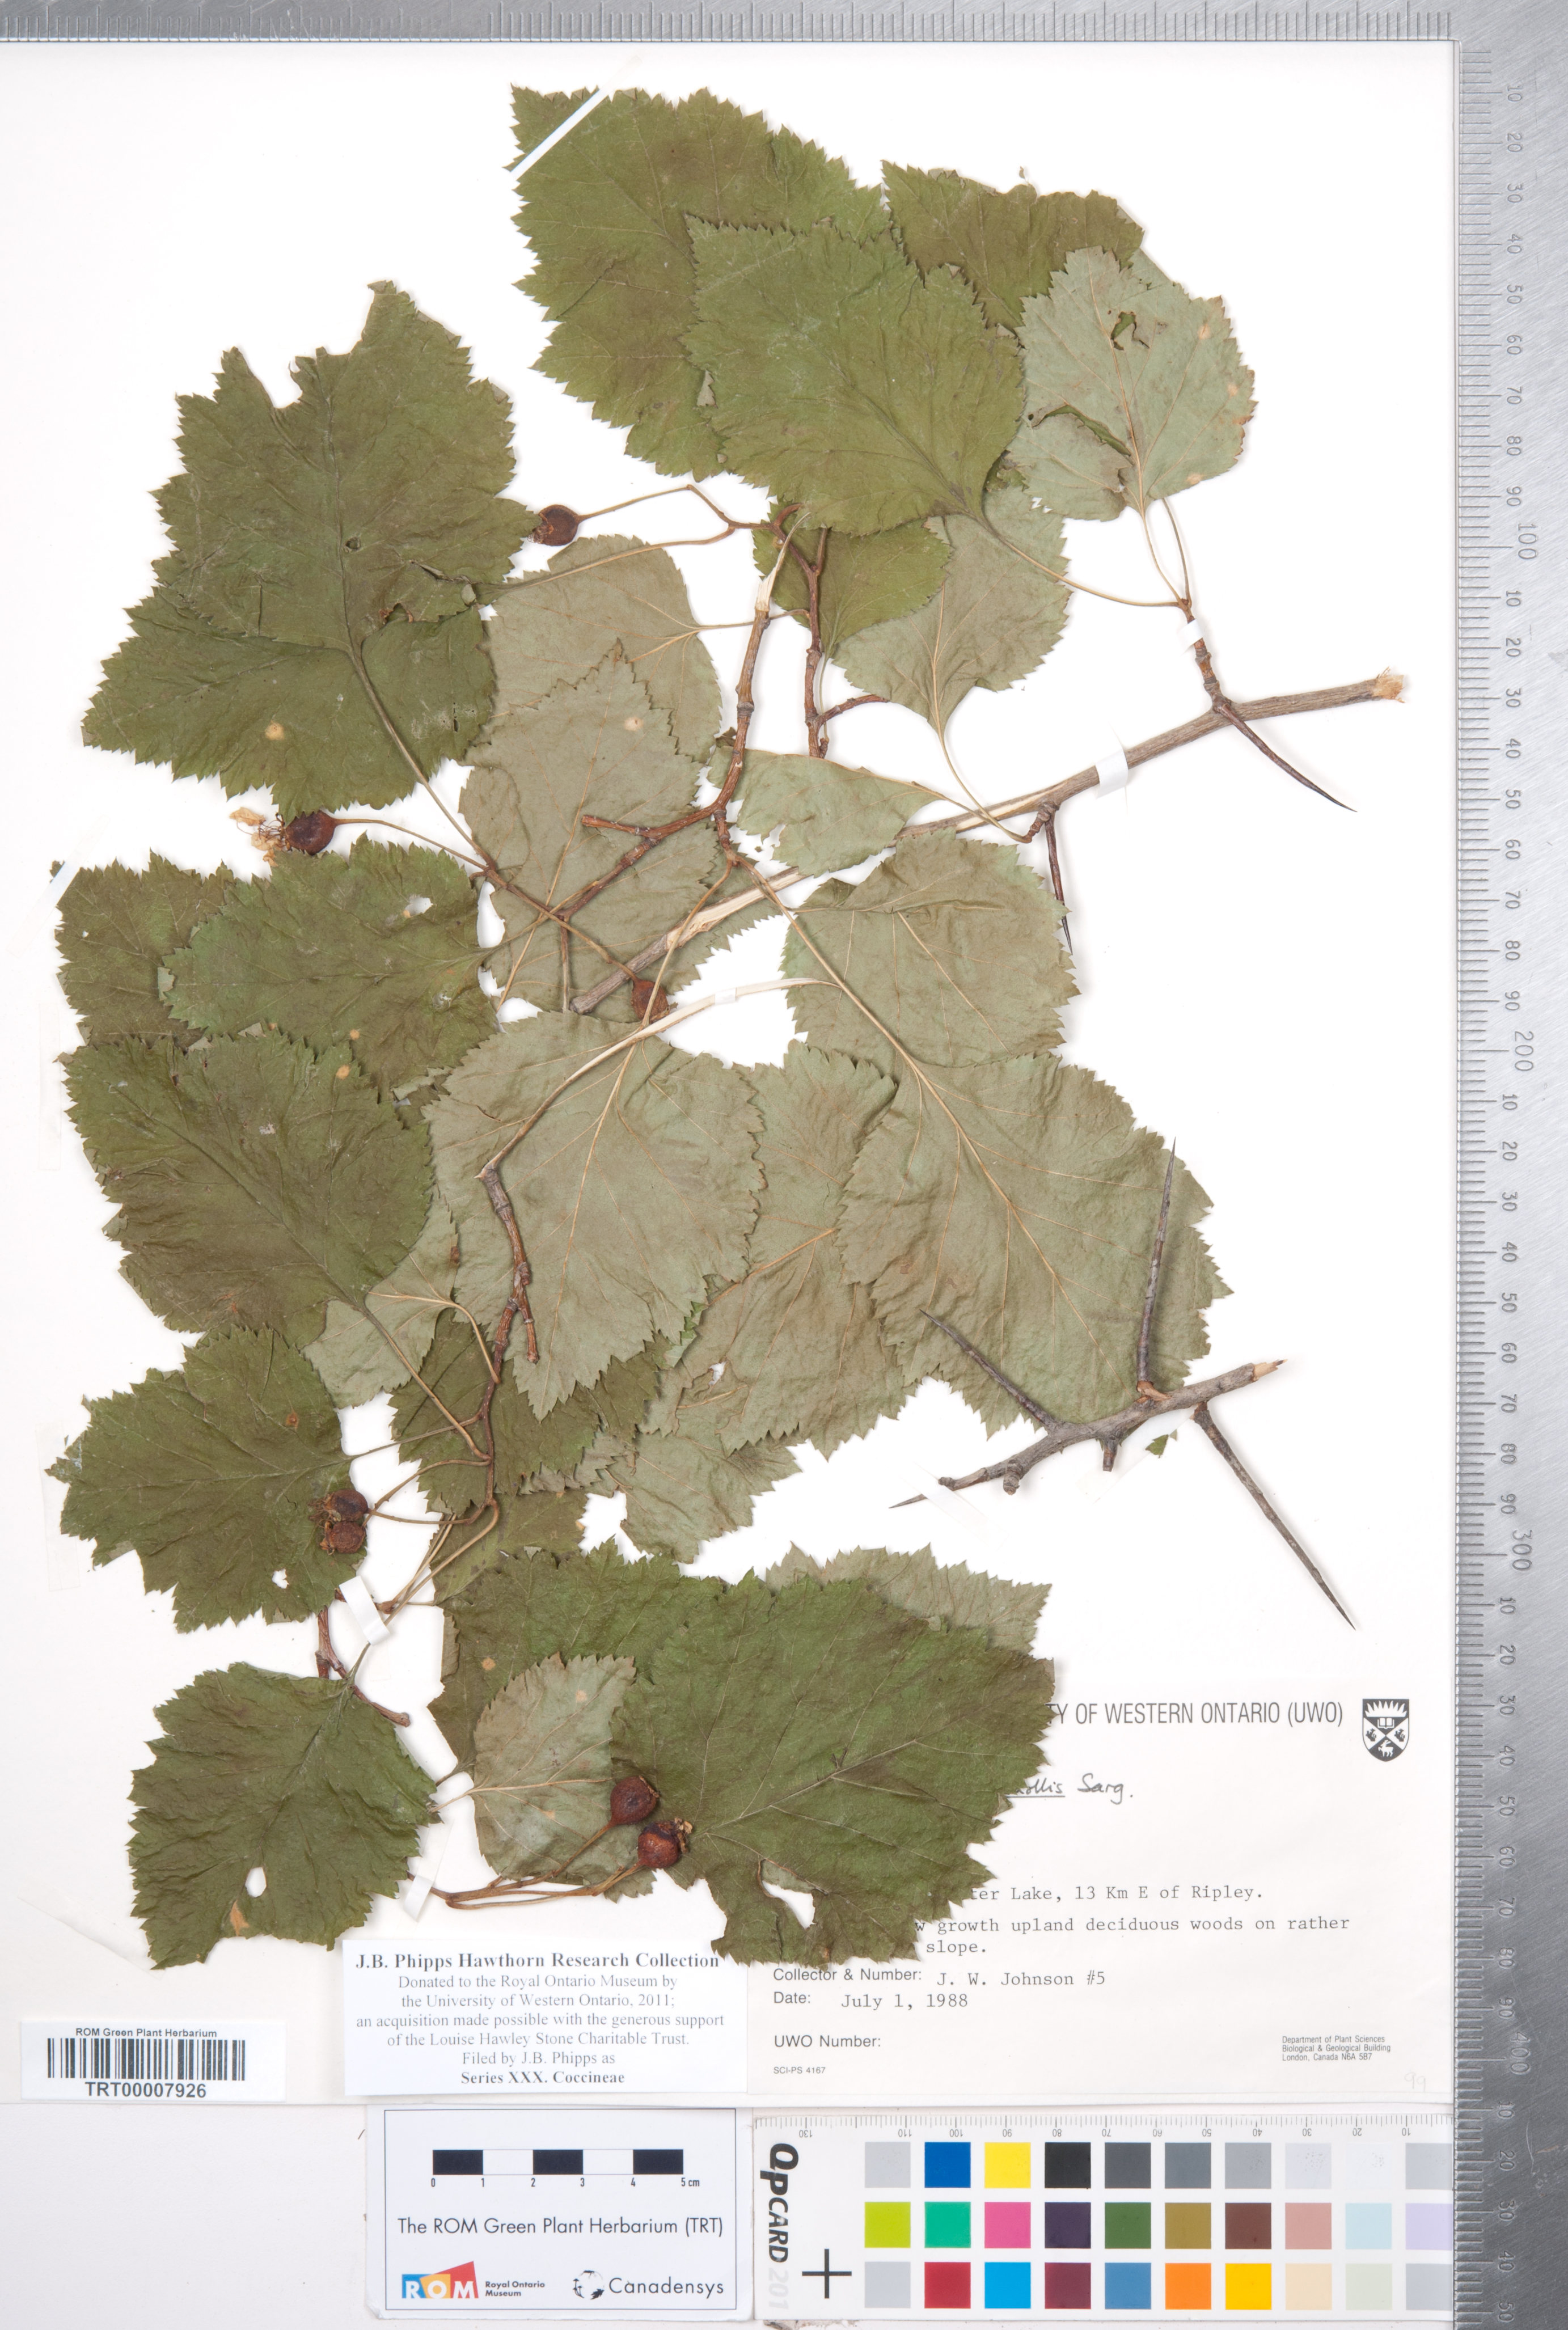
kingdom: Plantae
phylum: Tracheophyta
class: Magnoliopsida
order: Rosales
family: Rosaceae
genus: Crataegus
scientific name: Crataegus
